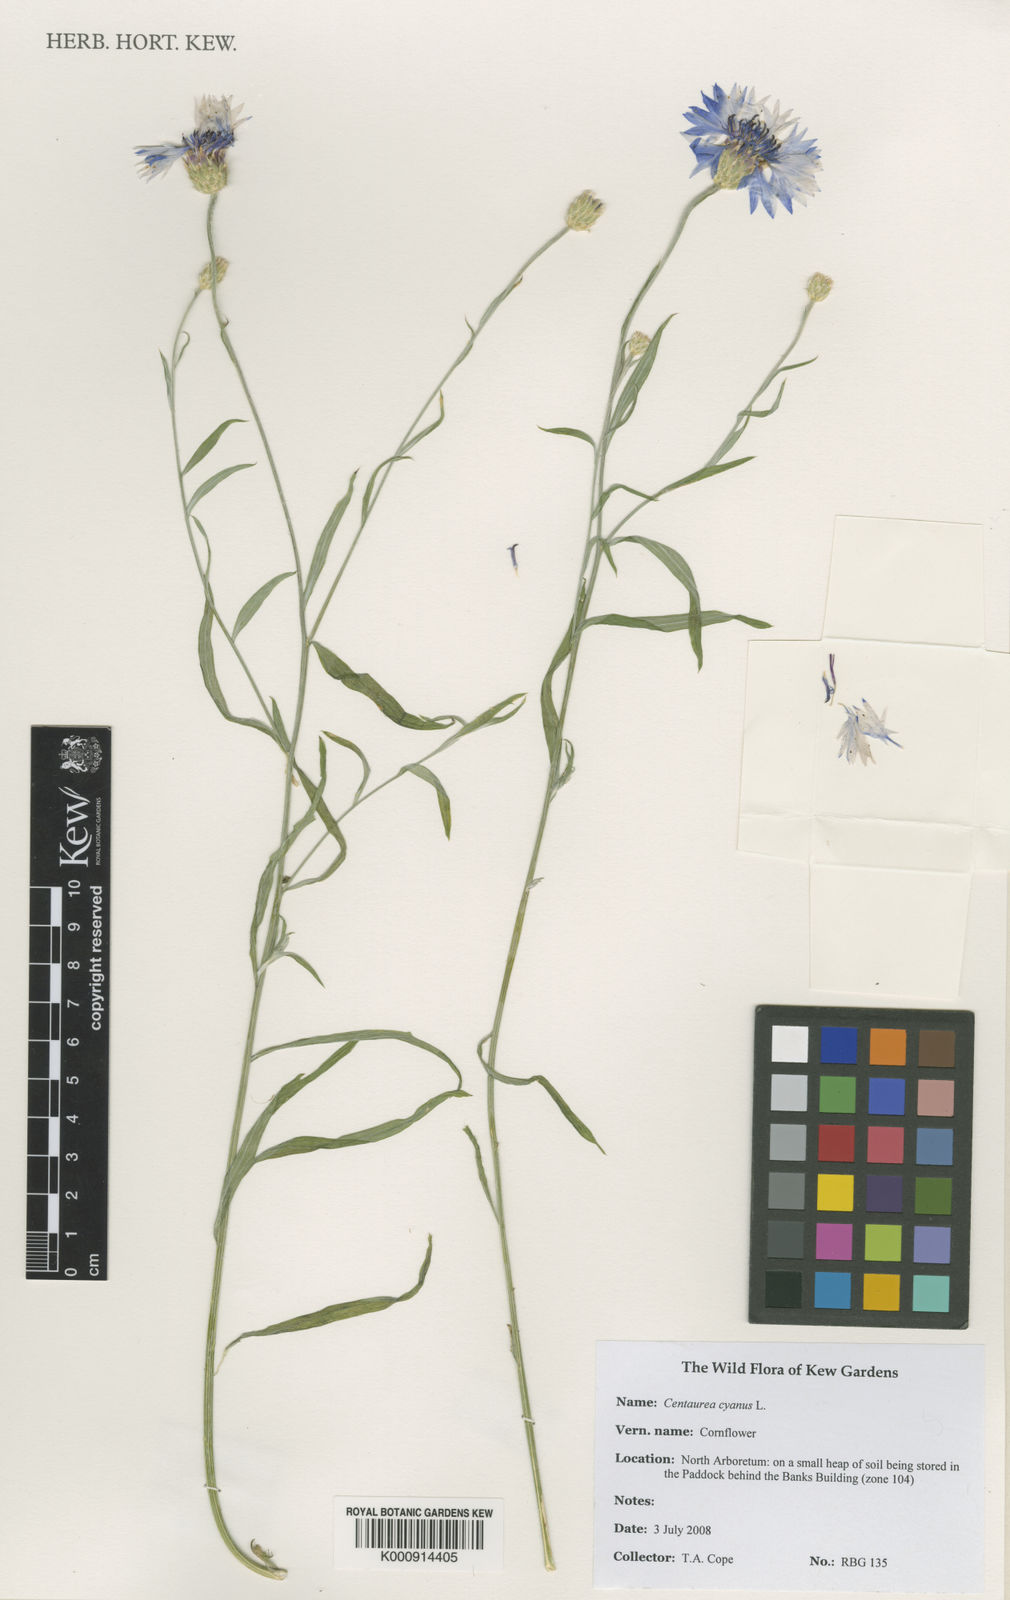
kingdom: Plantae
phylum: Tracheophyta
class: Magnoliopsida
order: Asterales
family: Asteraceae
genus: Centaurea
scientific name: Centaurea cyanus
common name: Cornflower
